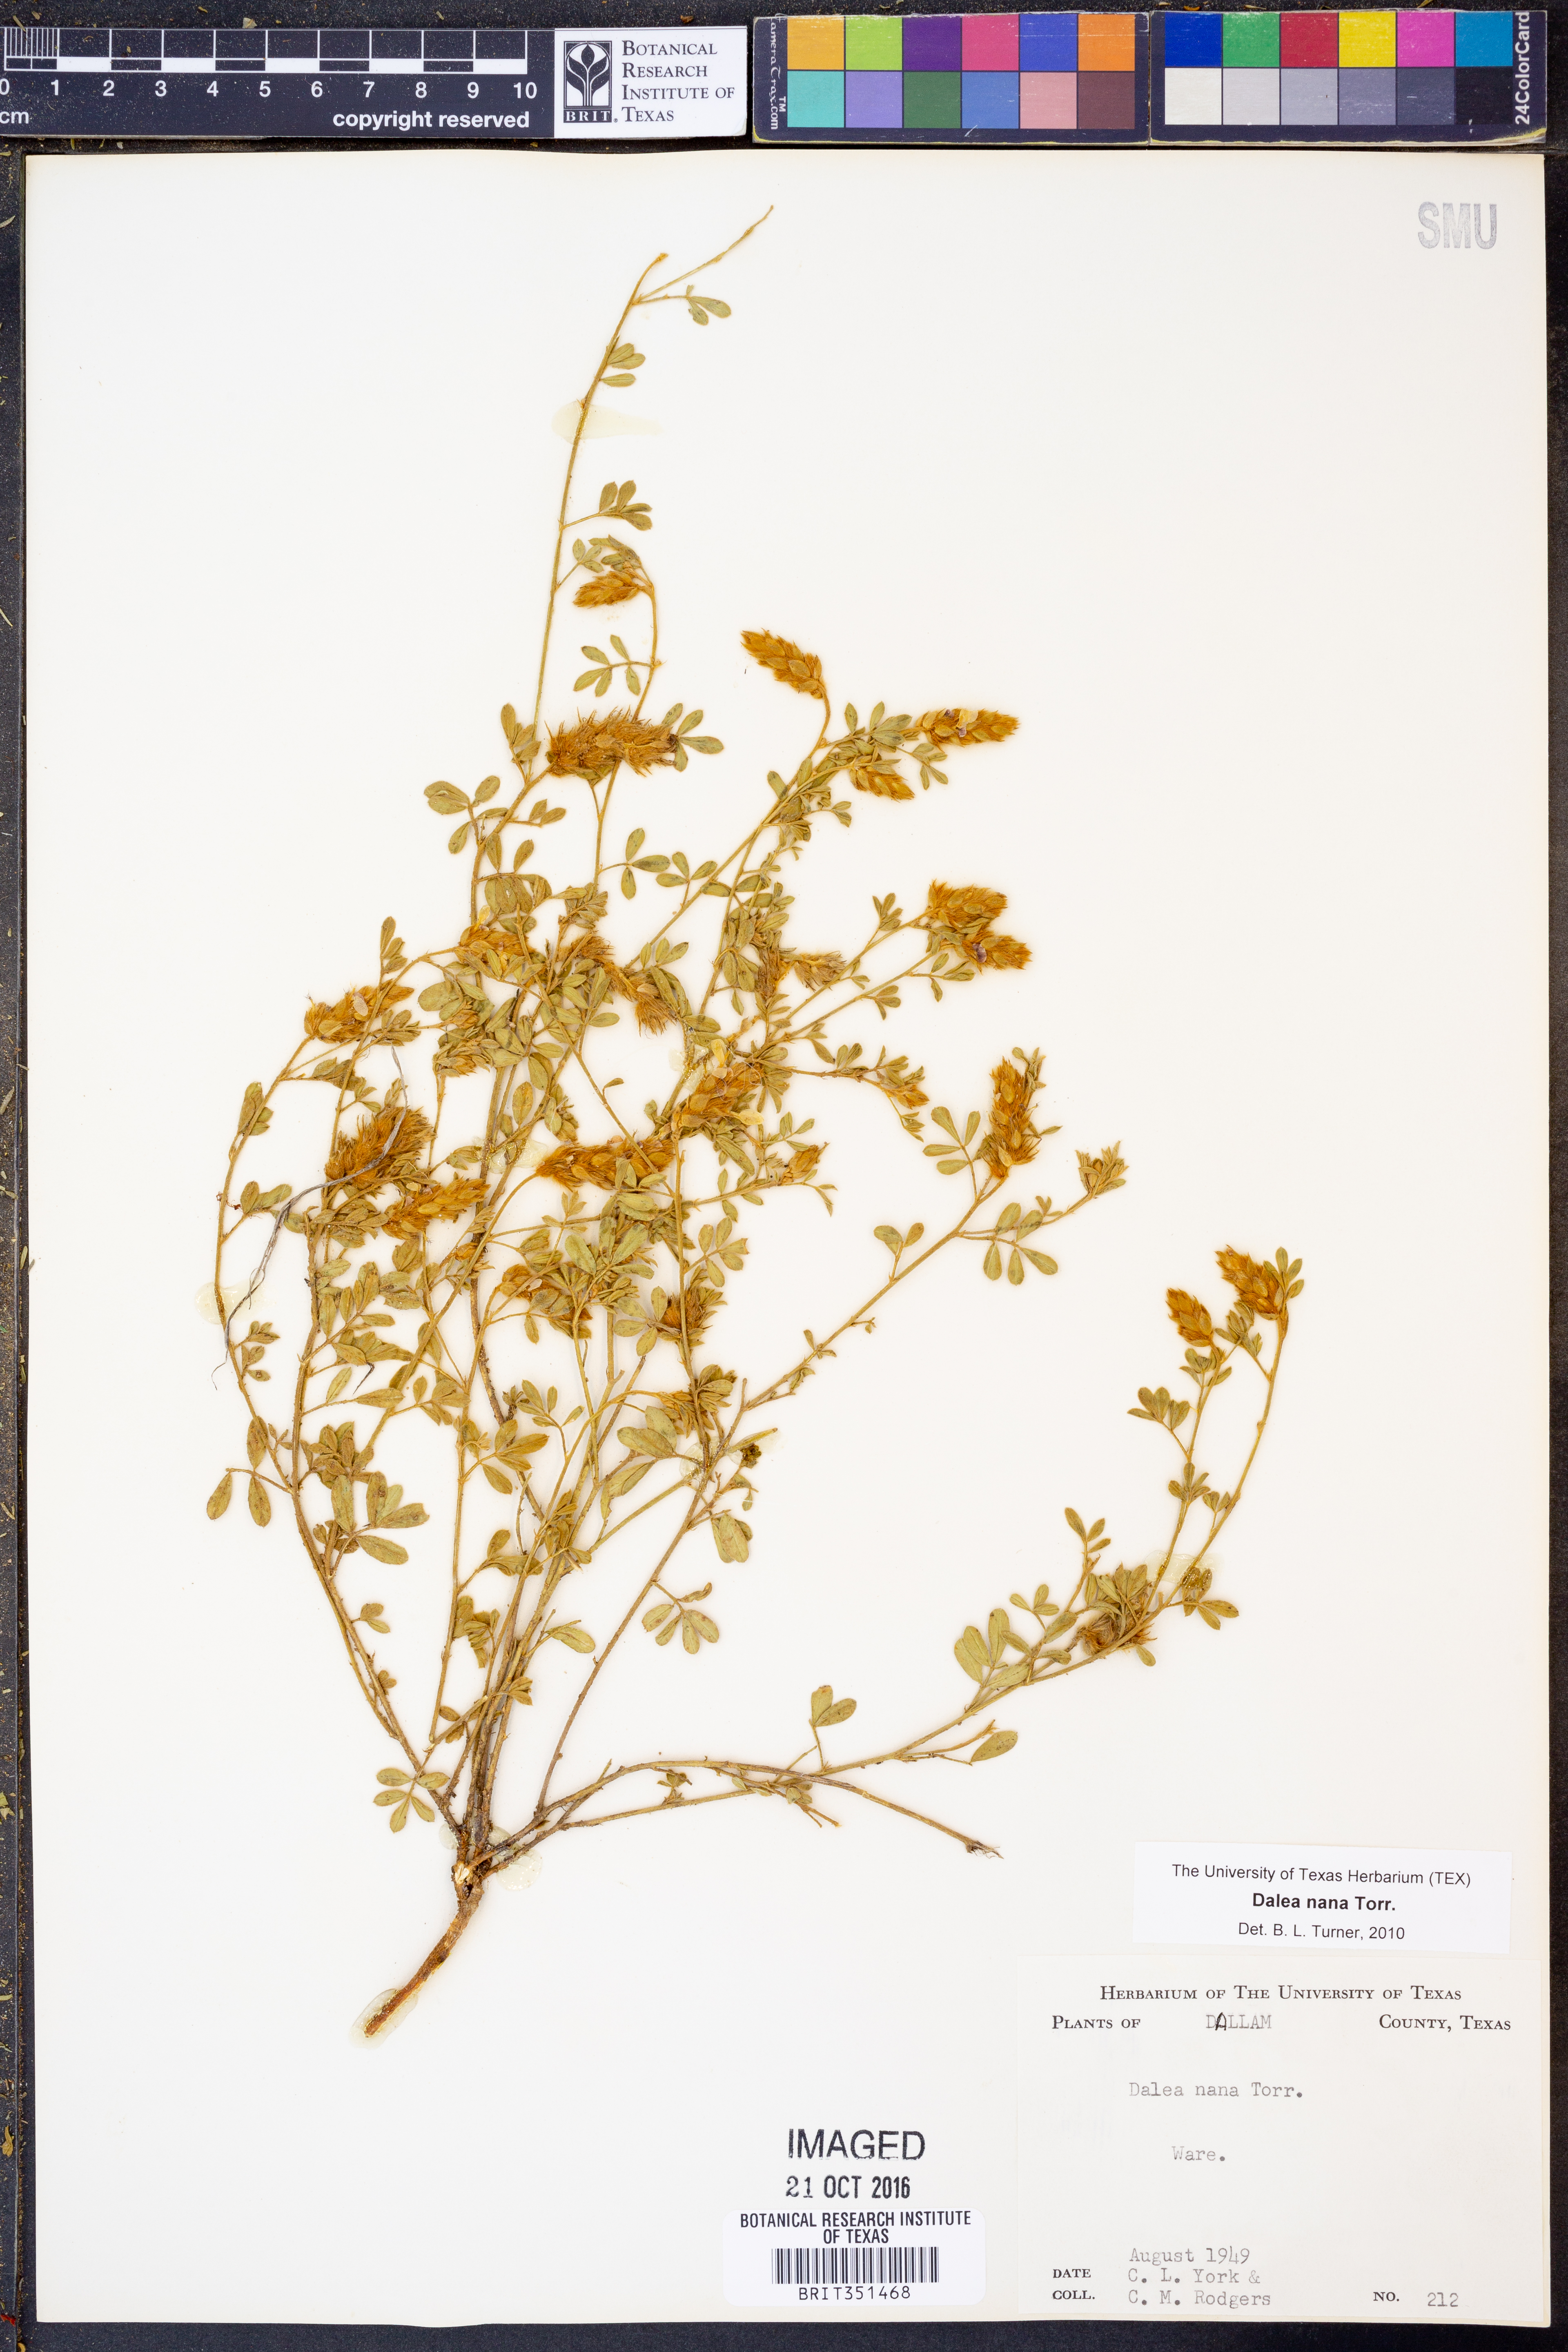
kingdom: Plantae
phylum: Tracheophyta
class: Magnoliopsida
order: Fabales
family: Fabaceae
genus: Dalea
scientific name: Dalea nana
